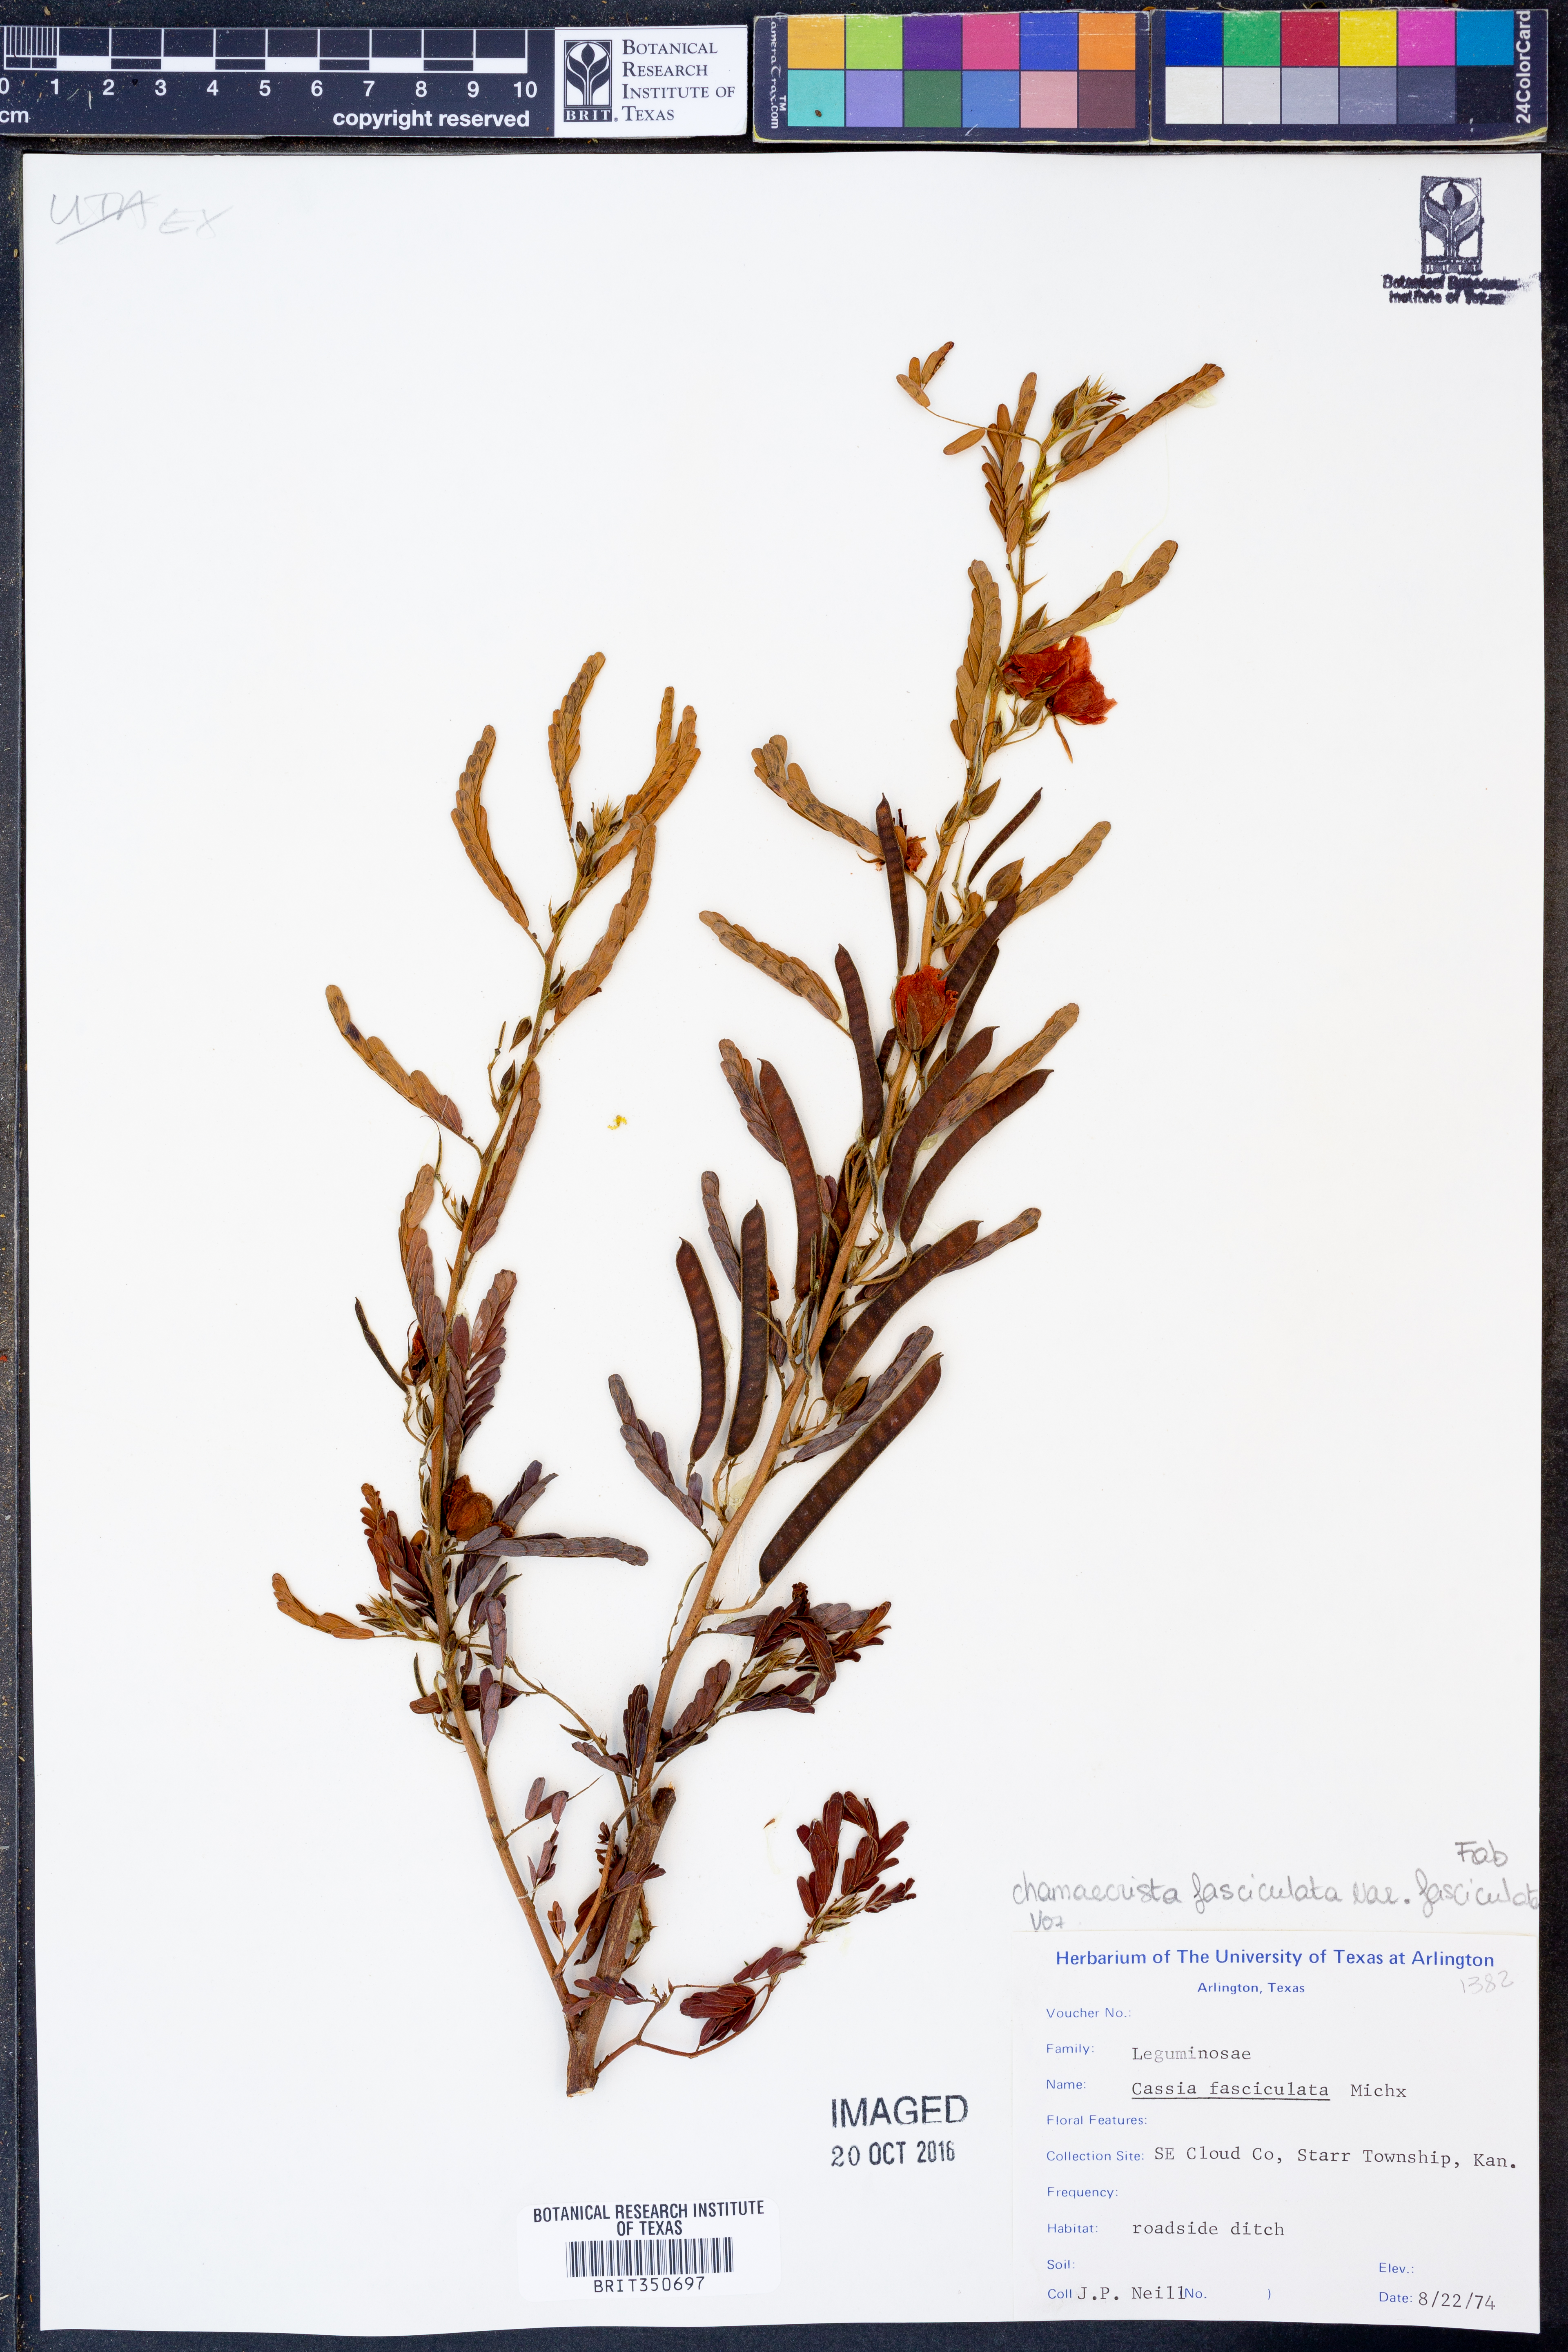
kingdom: Plantae
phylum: Tracheophyta
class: Magnoliopsida
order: Fabales
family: Fabaceae
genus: Chamaecrista
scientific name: Chamaecrista fasciculata
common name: Golden cassia
